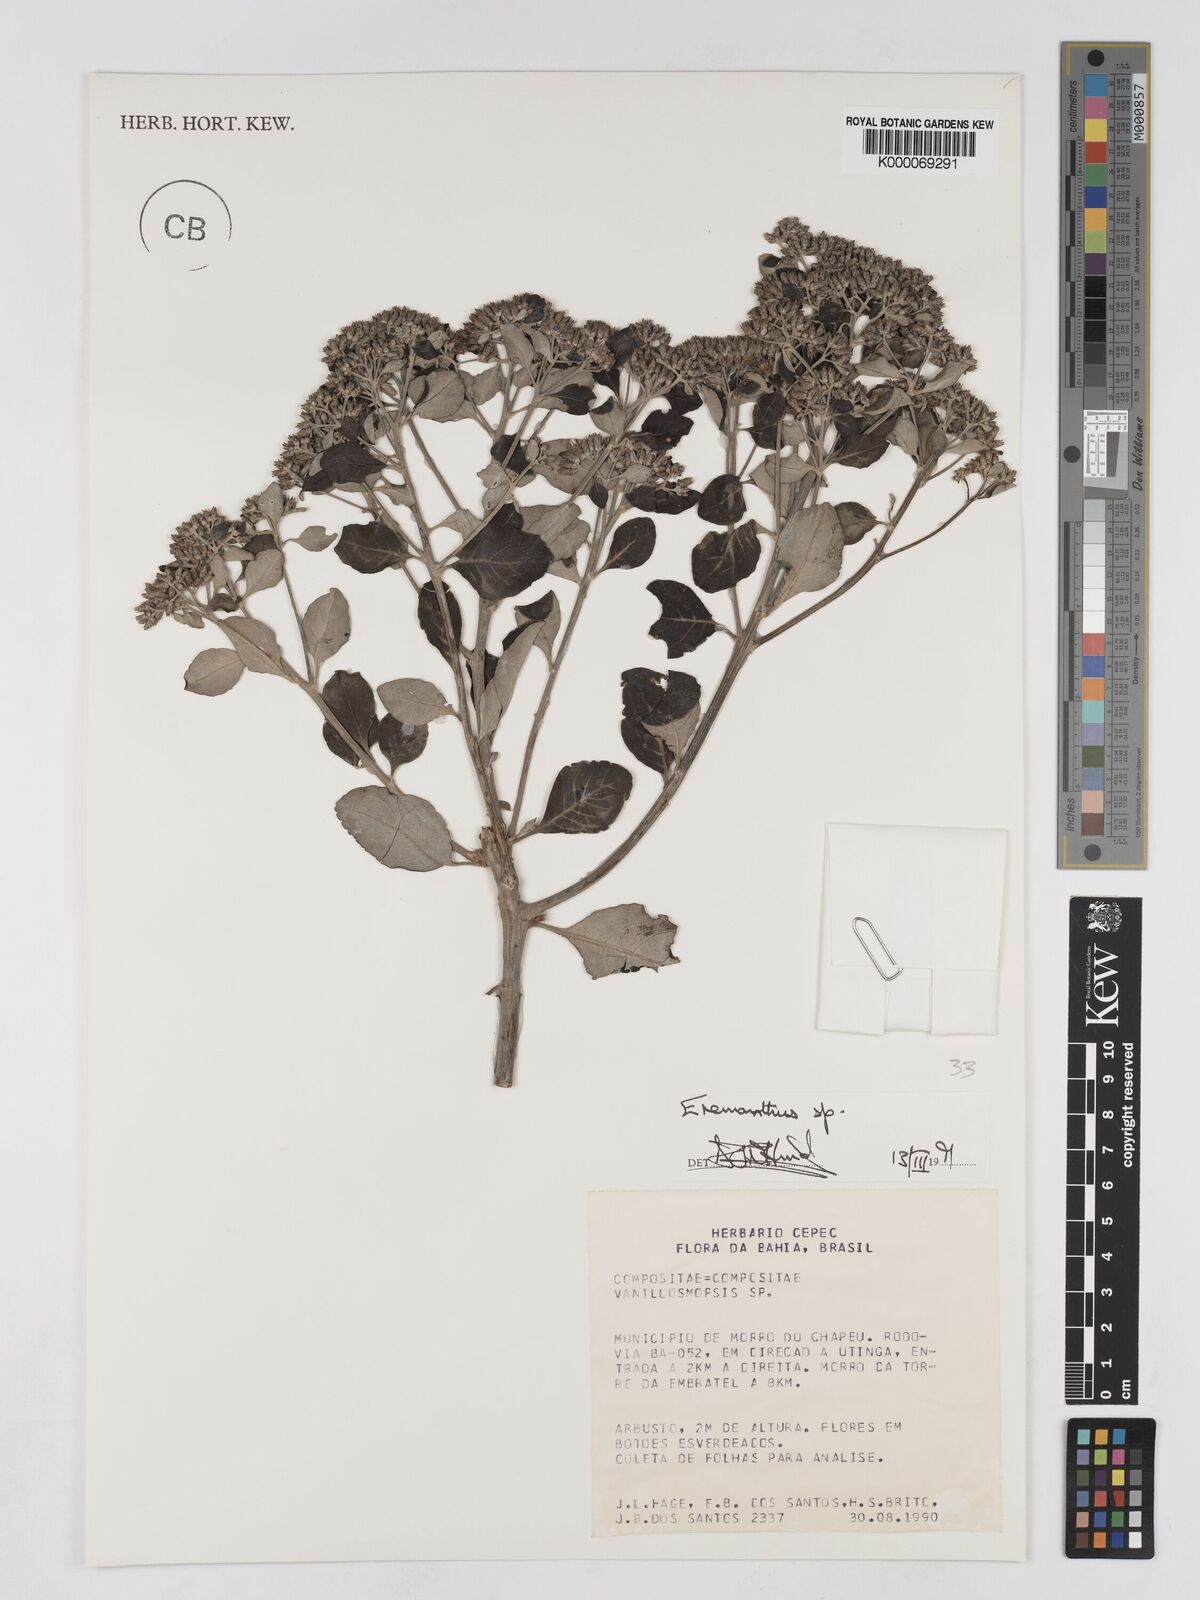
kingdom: Plantae
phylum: Tracheophyta
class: Magnoliopsida
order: Asterales
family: Asteraceae
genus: Eremanthus
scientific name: Eremanthus
